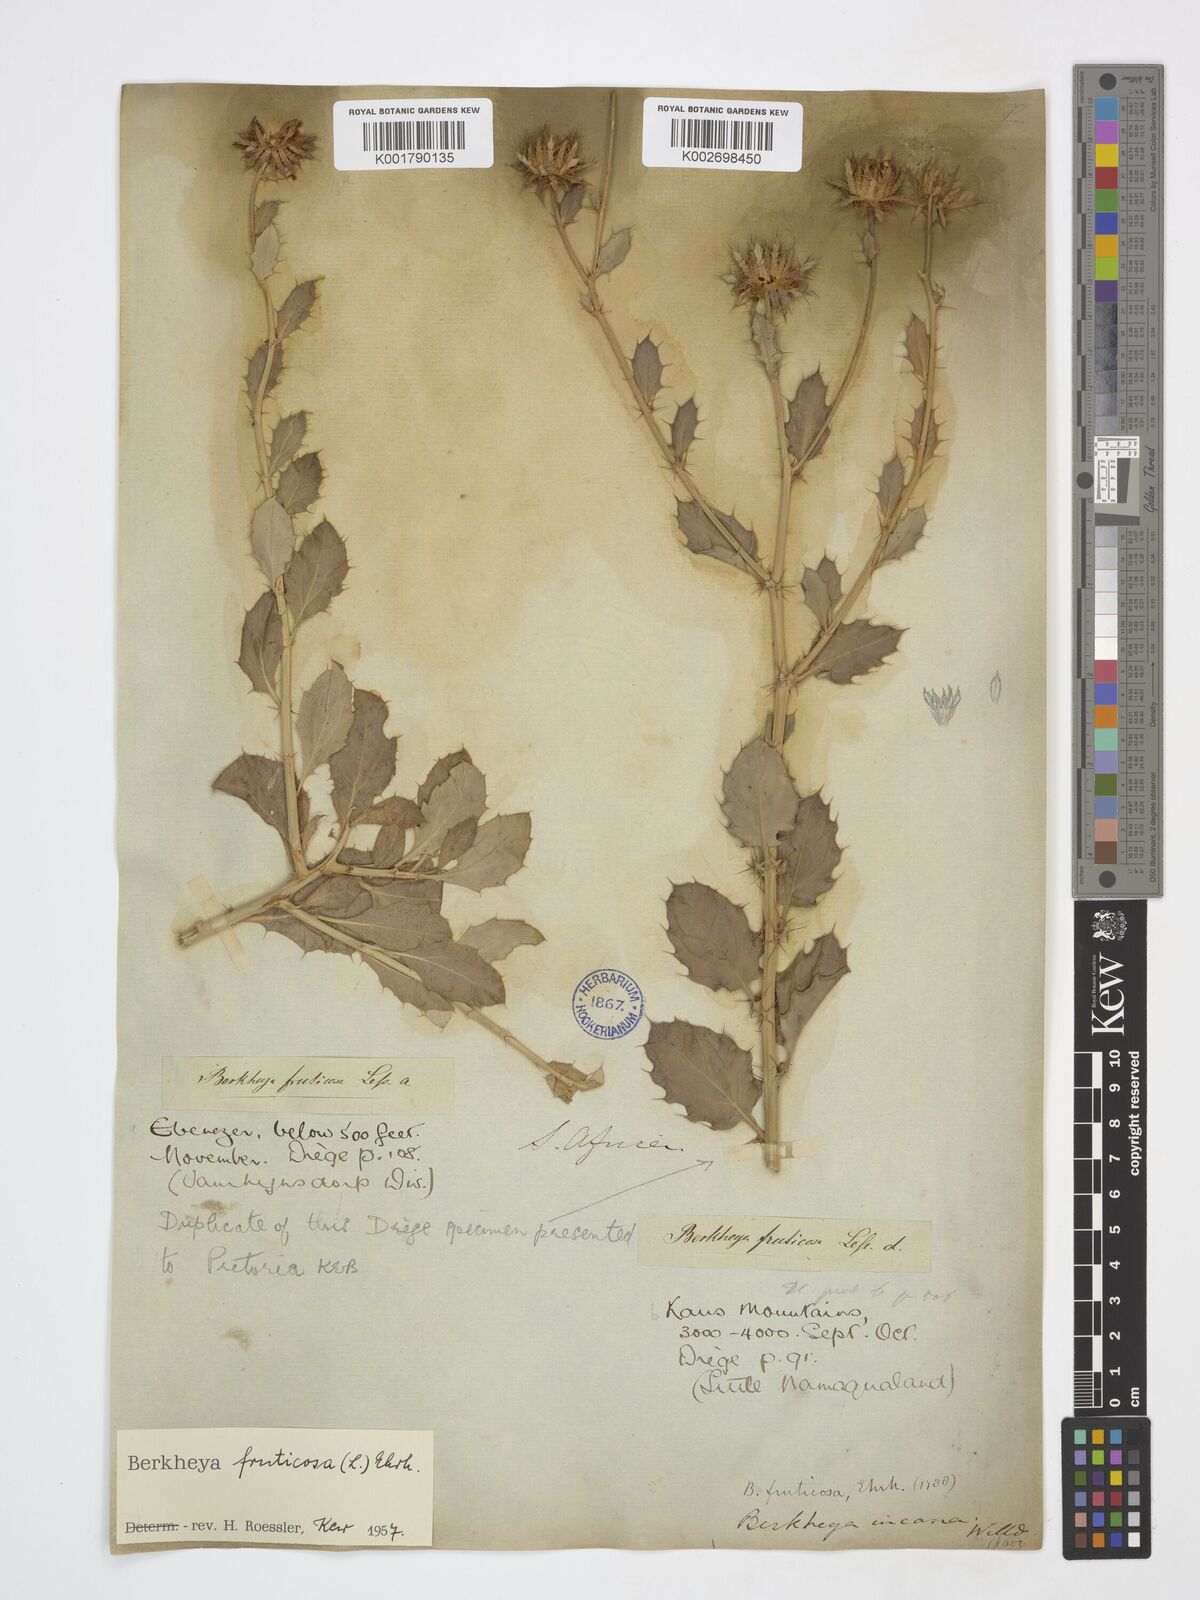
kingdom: Plantae
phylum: Tracheophyta
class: Magnoliopsida
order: Asterales
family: Asteraceae
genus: Berkheya
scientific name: Berkheya fruticosa
